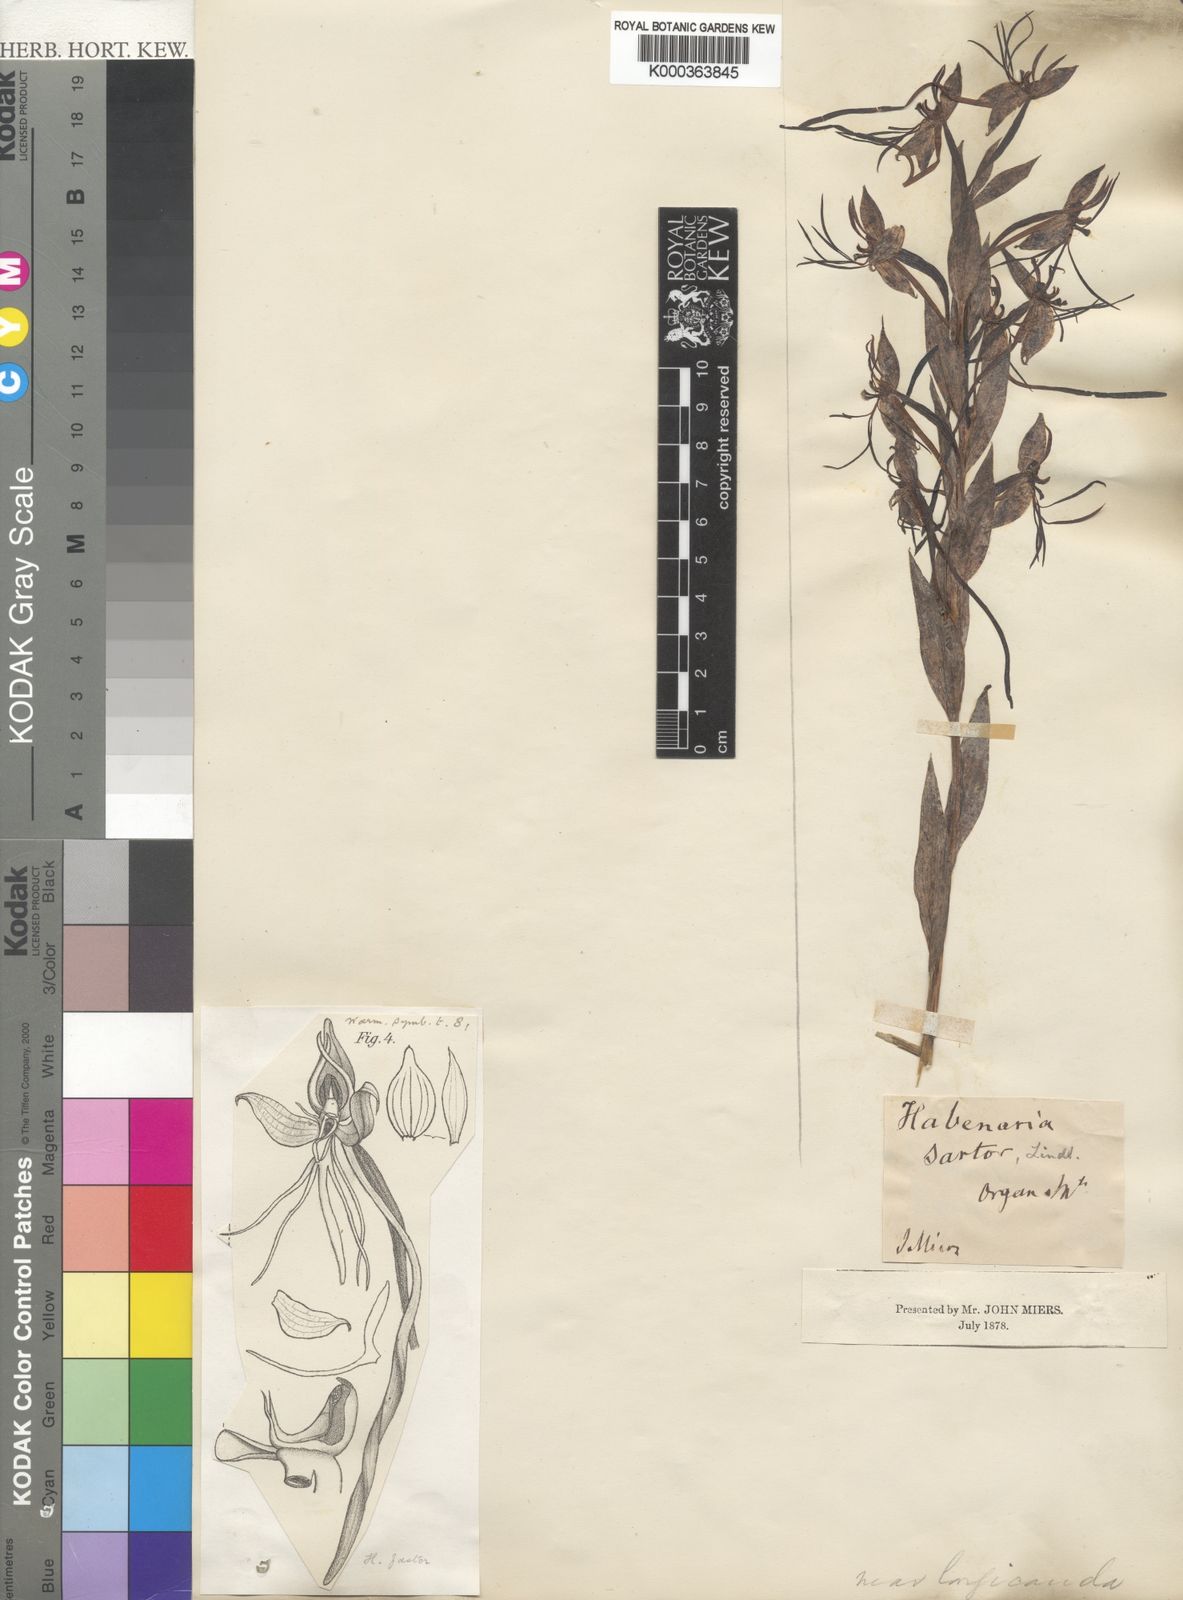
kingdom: Plantae
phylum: Tracheophyta
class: Liliopsida
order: Asparagales
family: Orchidaceae
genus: Habenaria
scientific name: Habenaria sartor
